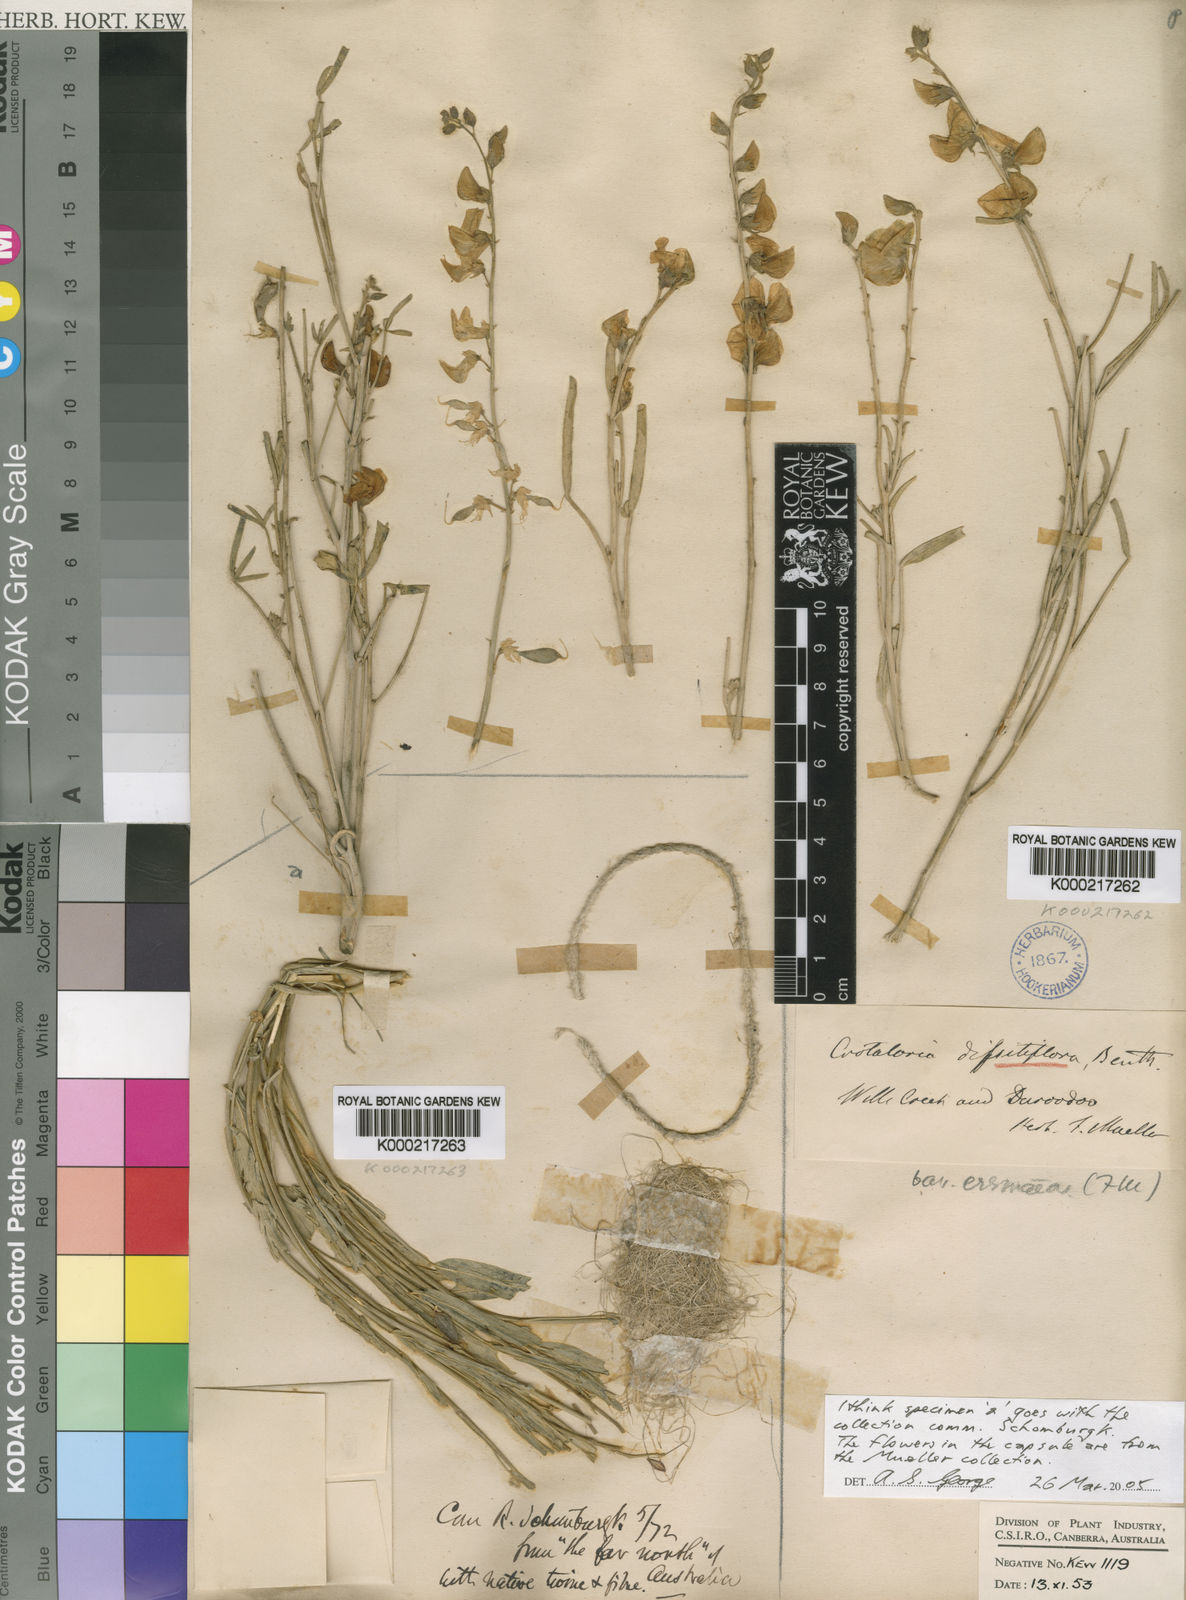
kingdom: Plantae
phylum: Tracheophyta
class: Magnoliopsida
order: Fabales
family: Fabaceae
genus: Crotalaria
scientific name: Crotalaria
